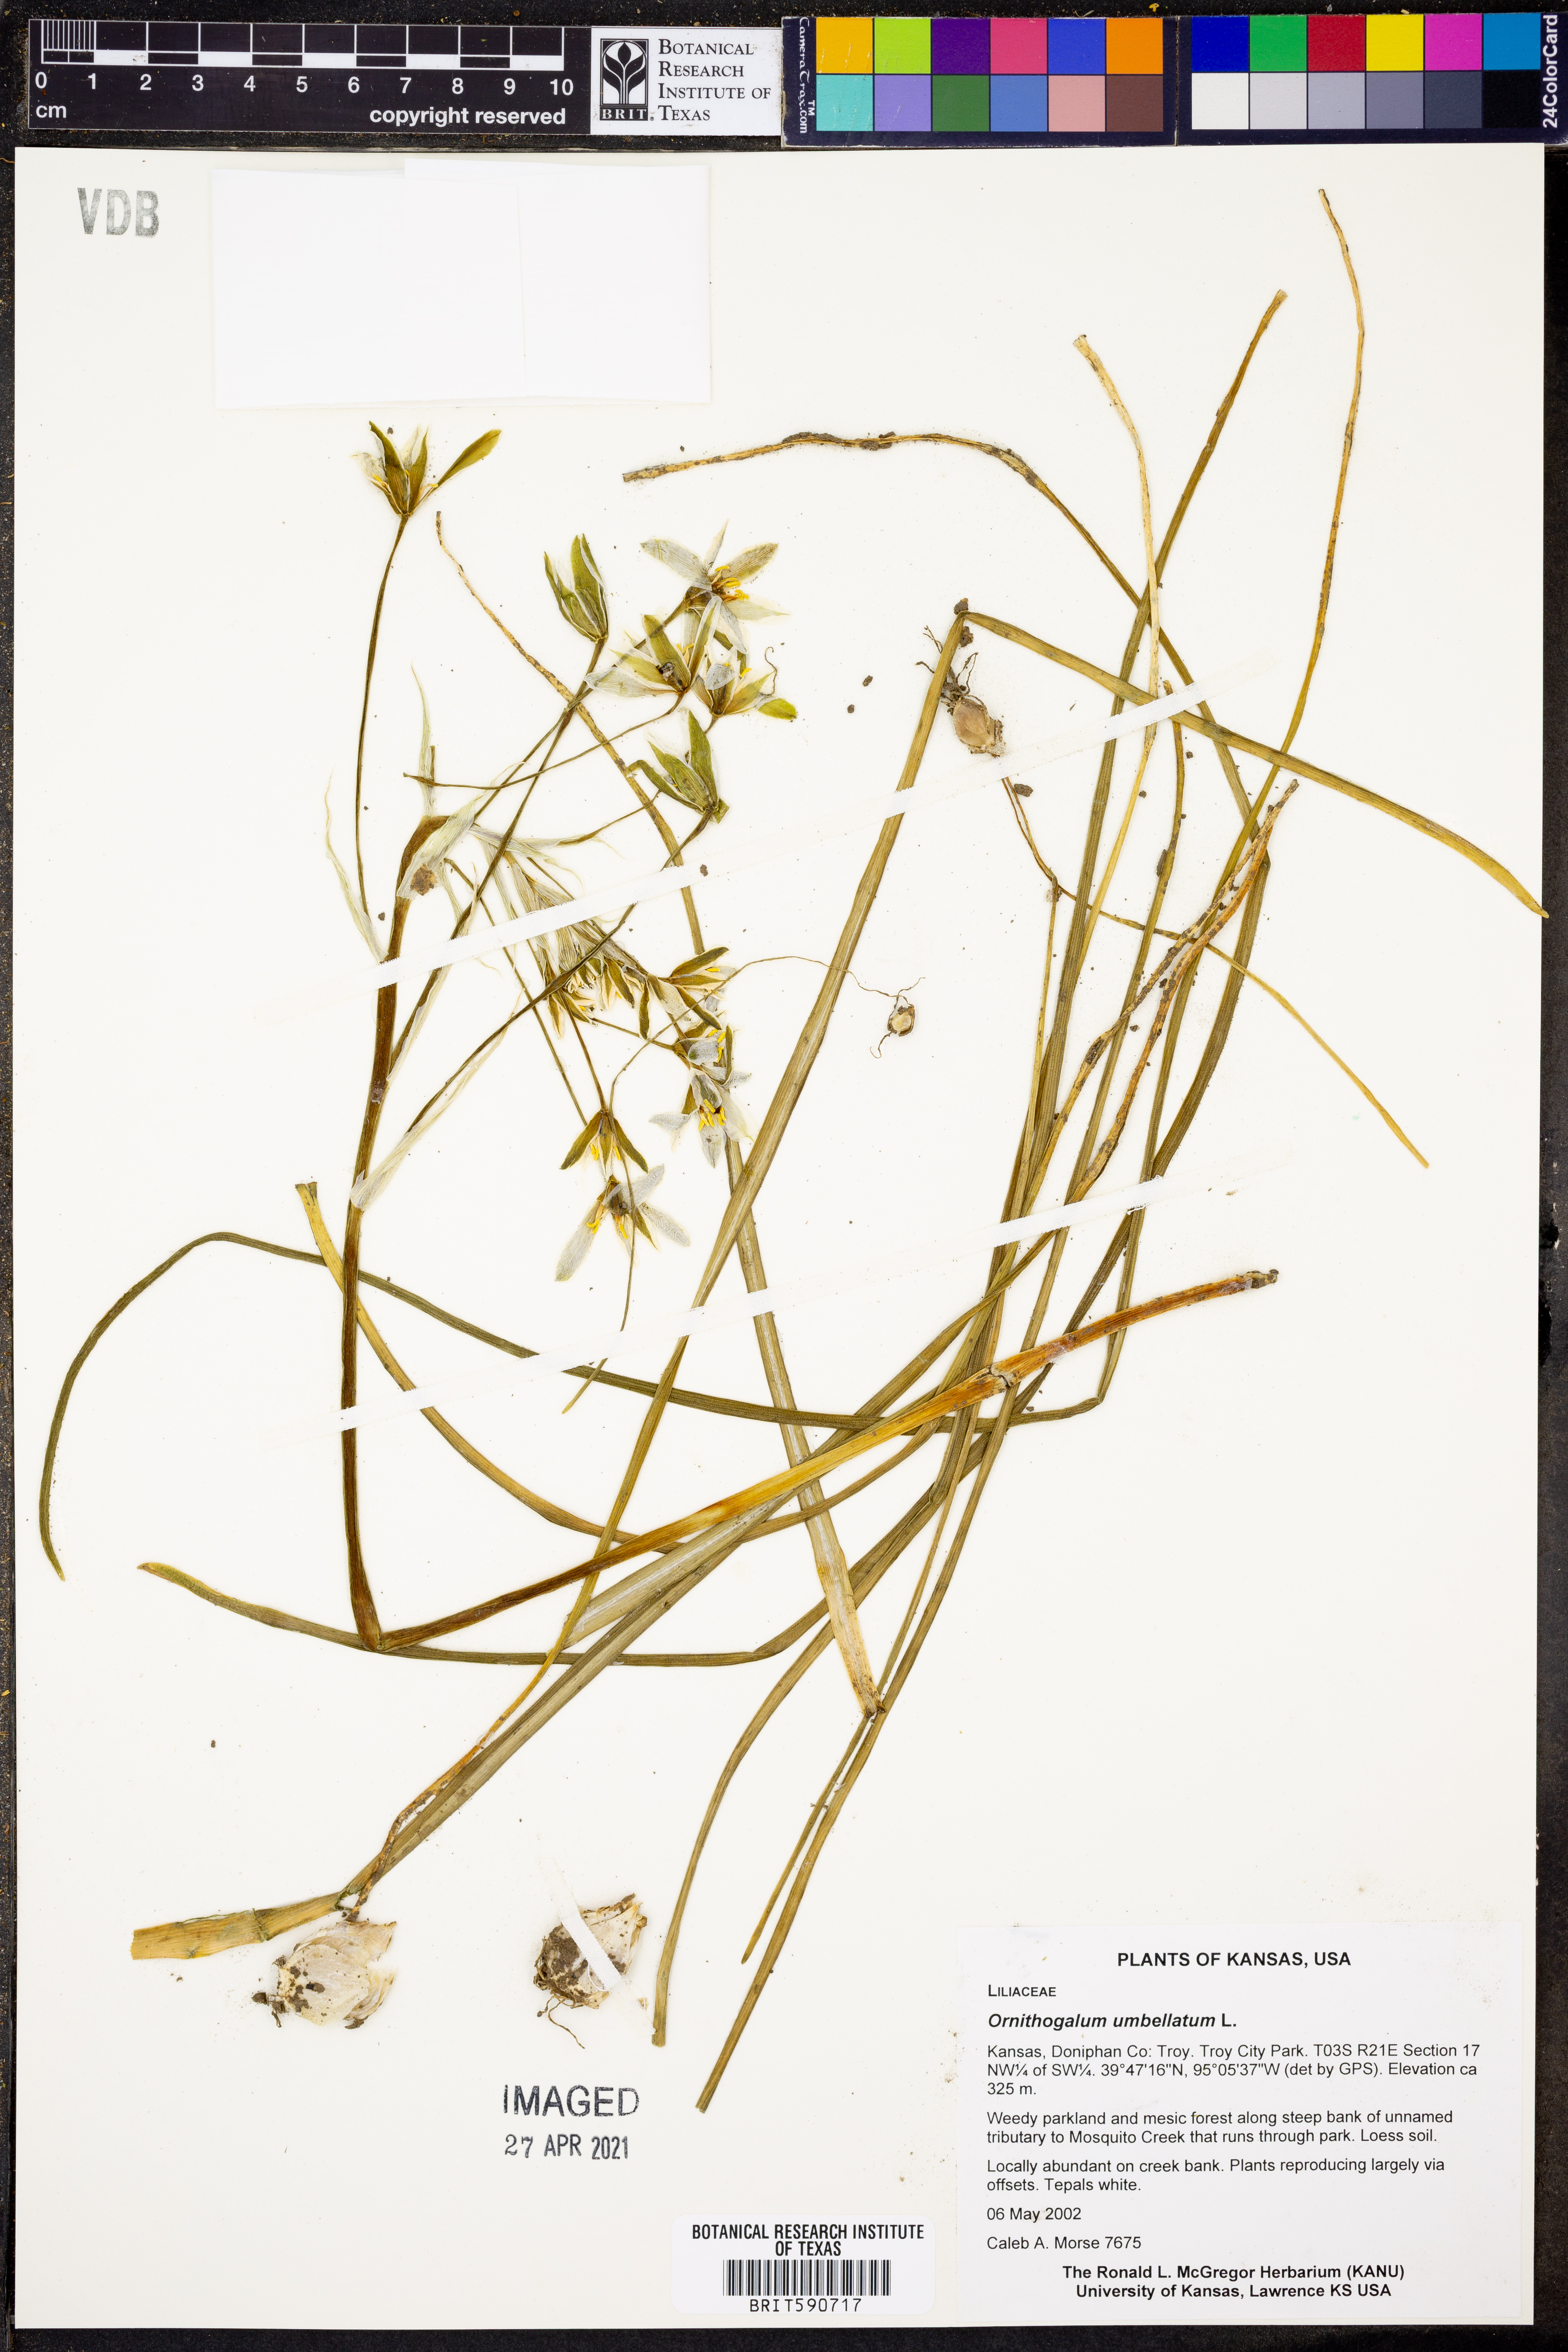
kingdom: Plantae
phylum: Tracheophyta
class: Liliopsida
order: Asparagales
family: Asparagaceae
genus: Ornithogalum
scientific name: Ornithogalum umbellatum
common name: Garden star-of-bethlehem
